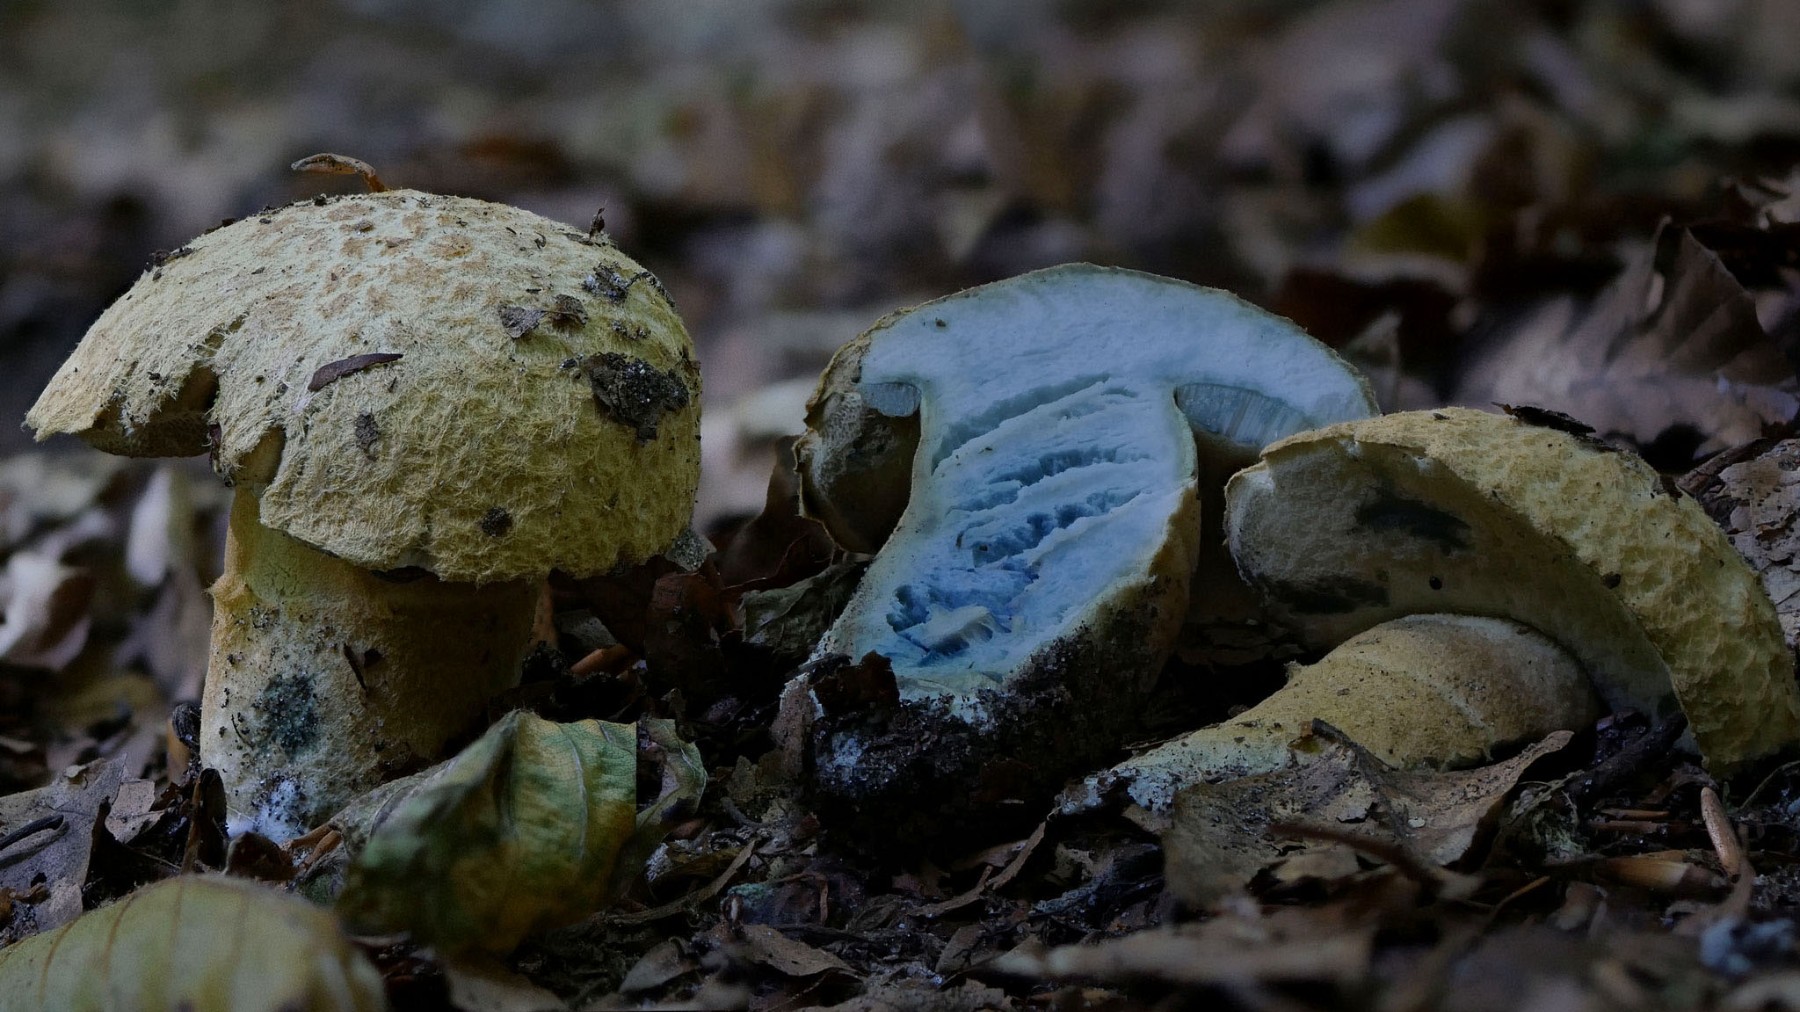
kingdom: Fungi
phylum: Basidiomycota
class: Agaricomycetes
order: Boletales
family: Gyroporaceae
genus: Gyroporus
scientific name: Gyroporus cyanescens
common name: blånende kammerrørhat
